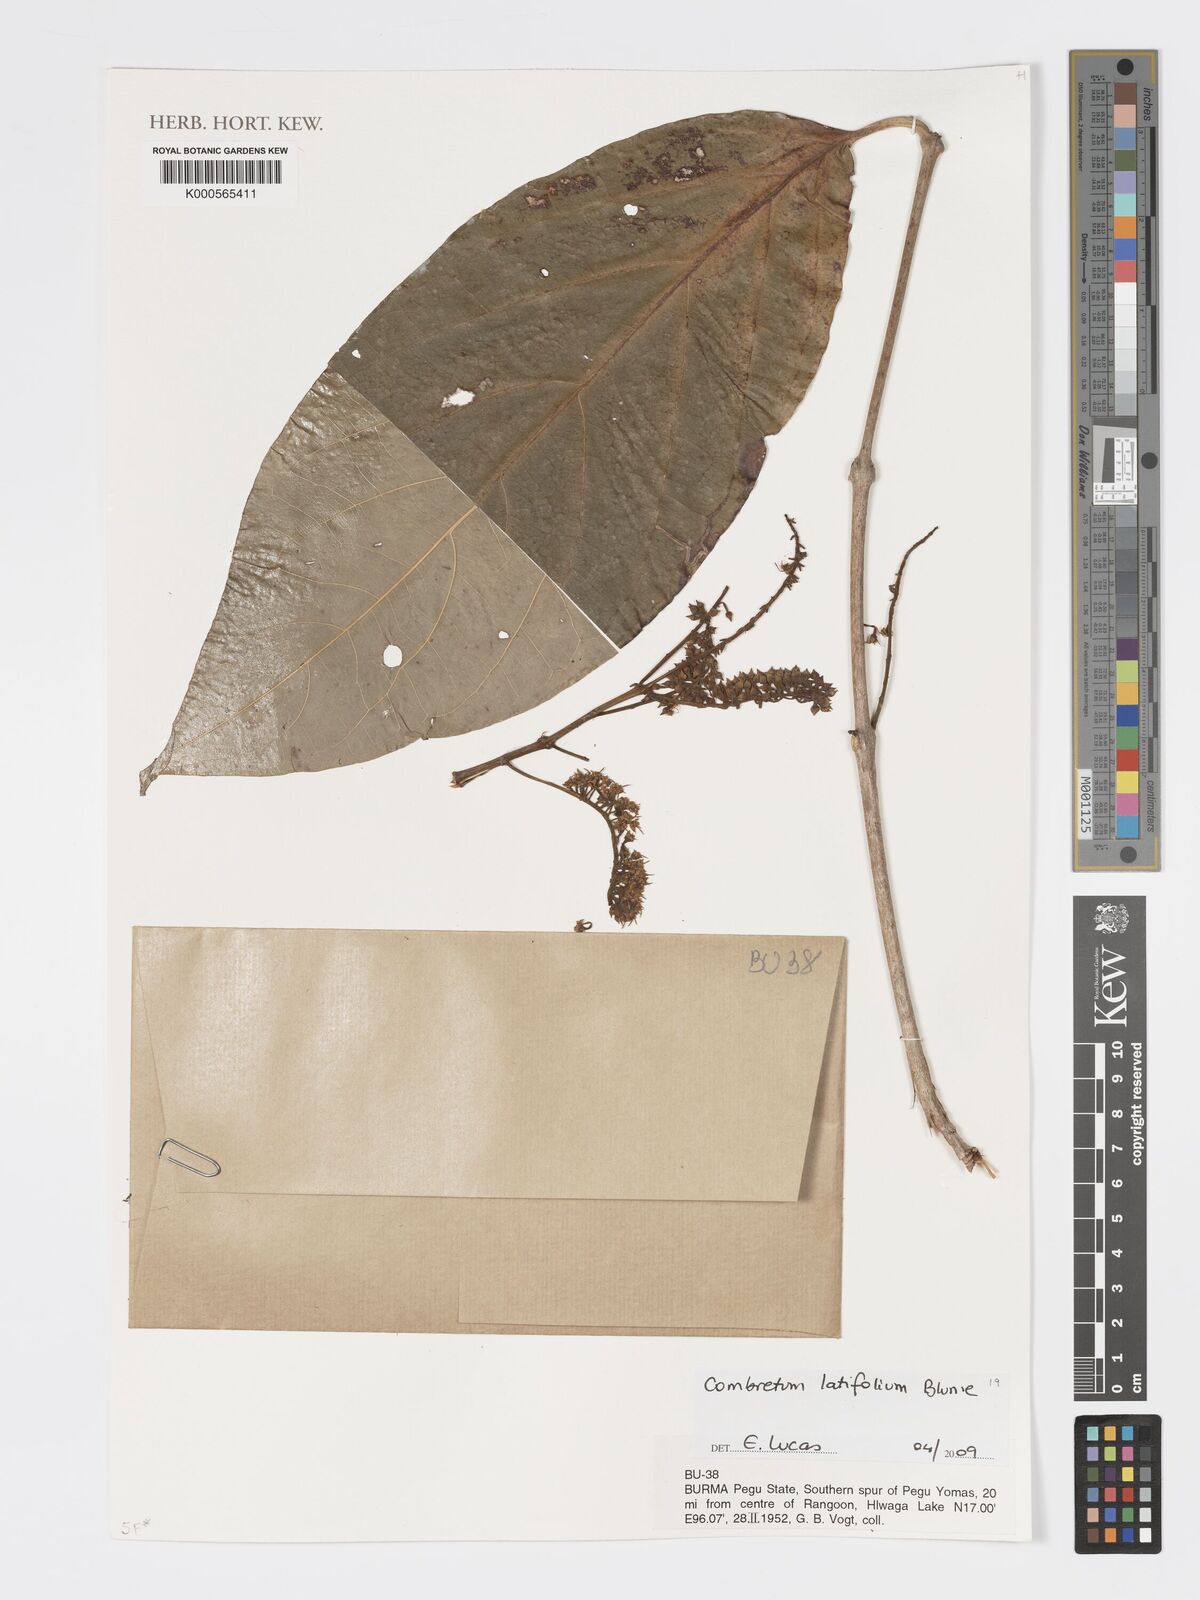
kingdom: Plantae
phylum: Tracheophyta
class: Magnoliopsida
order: Myrtales
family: Combretaceae
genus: Combretum
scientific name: Combretum latifolium
